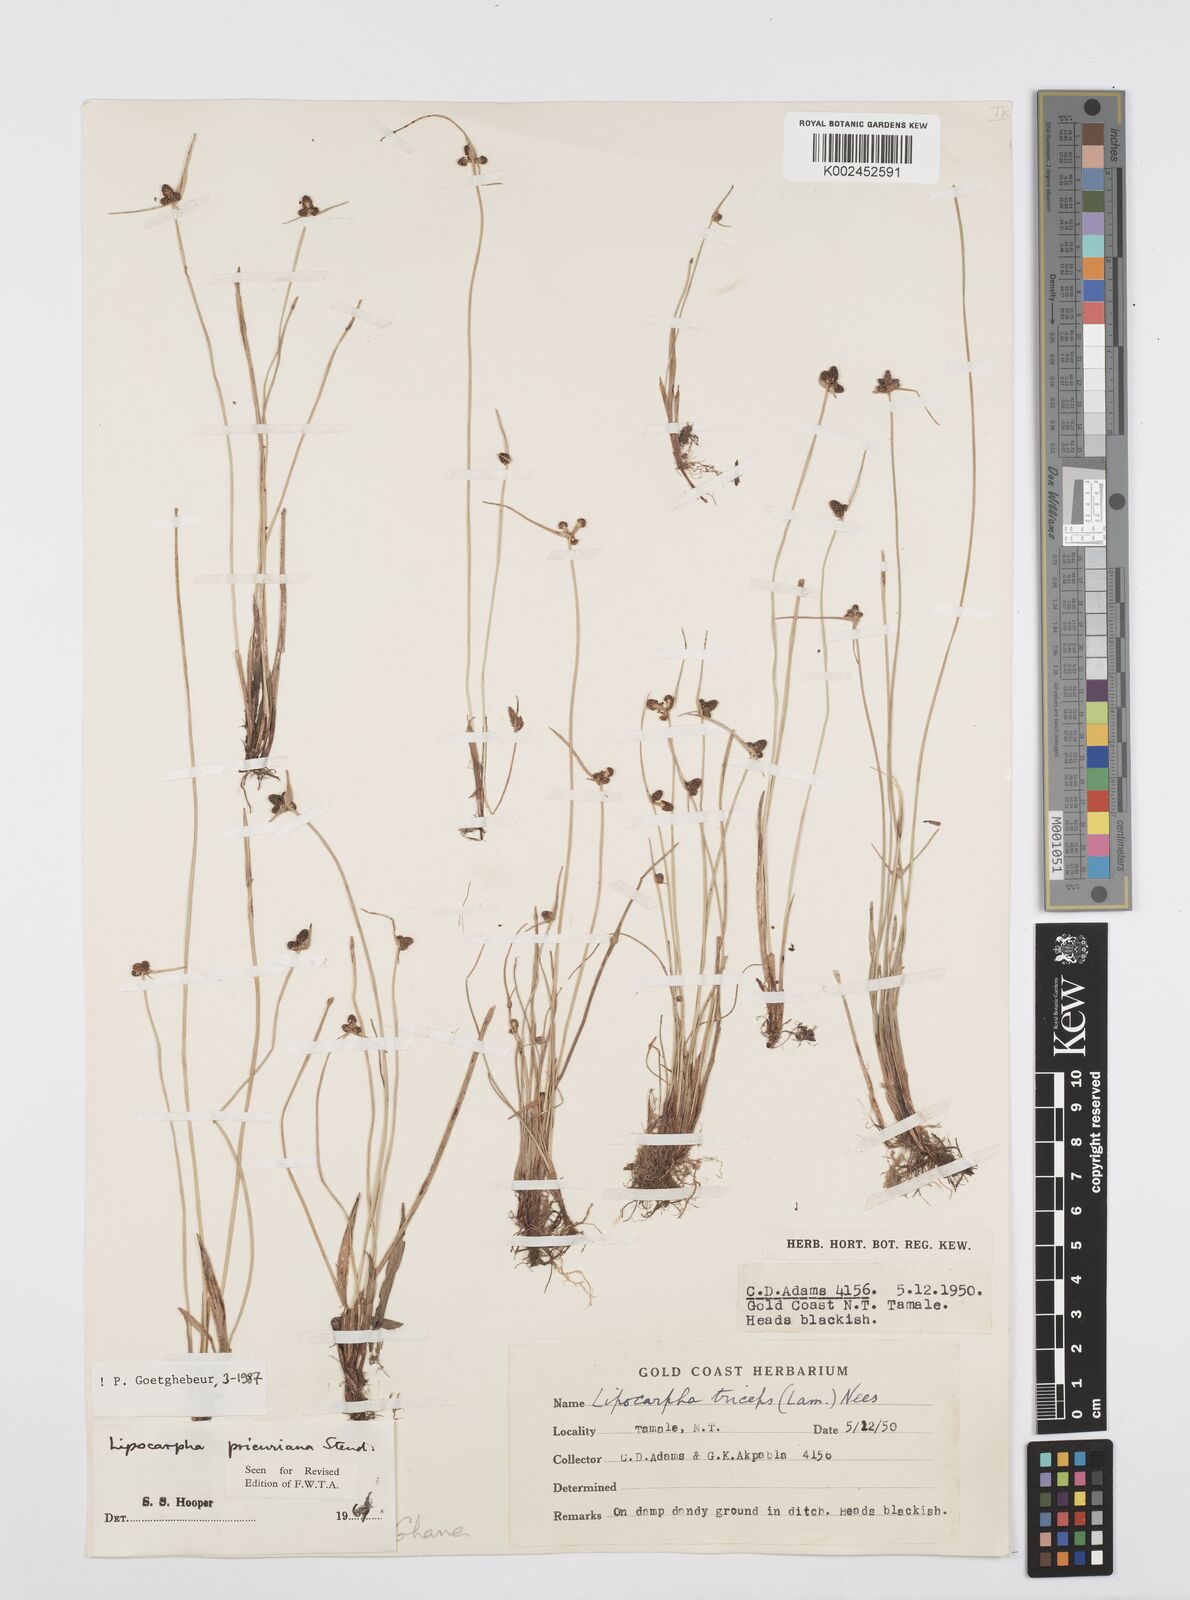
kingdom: Plantae
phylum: Tracheophyta
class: Liliopsida
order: Poales
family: Cyperaceae
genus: Cyperus
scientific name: Cyperus prieurianus
